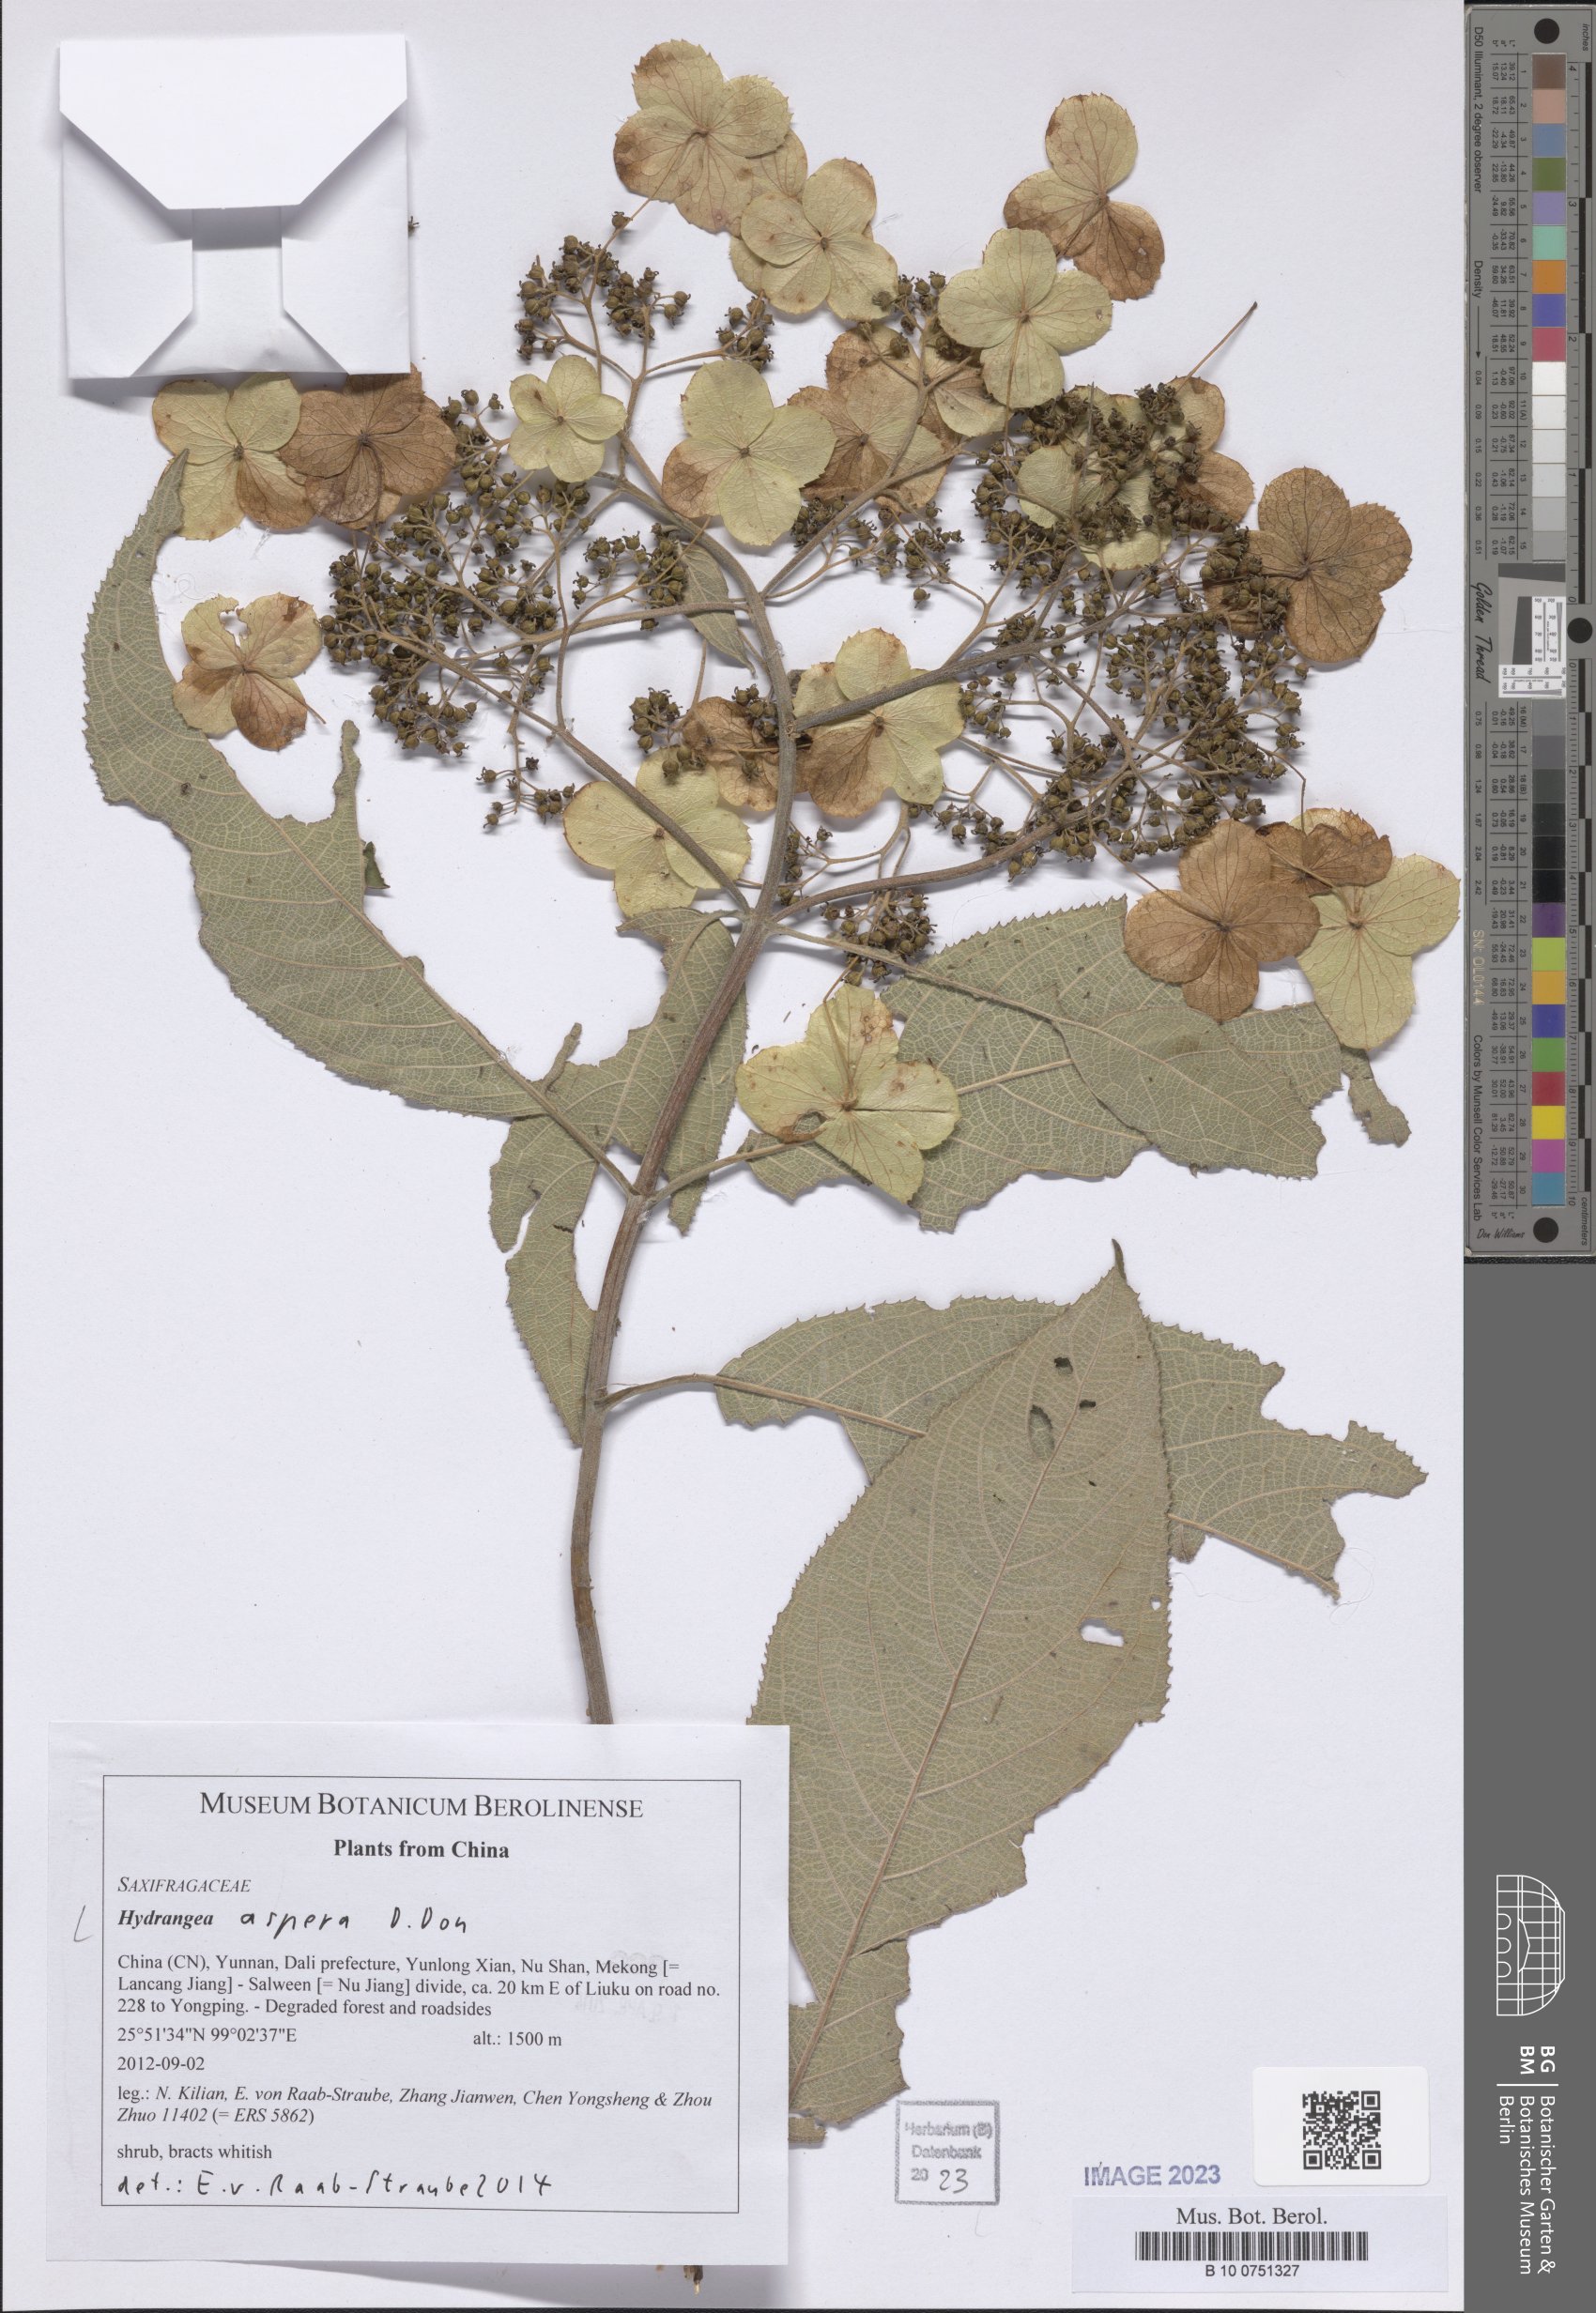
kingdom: Plantae
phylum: Tracheophyta
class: Magnoliopsida
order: Cornales
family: Hydrangeaceae
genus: Hydrangea
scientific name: Hydrangea aspera
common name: Rough-leaf hydrangea
